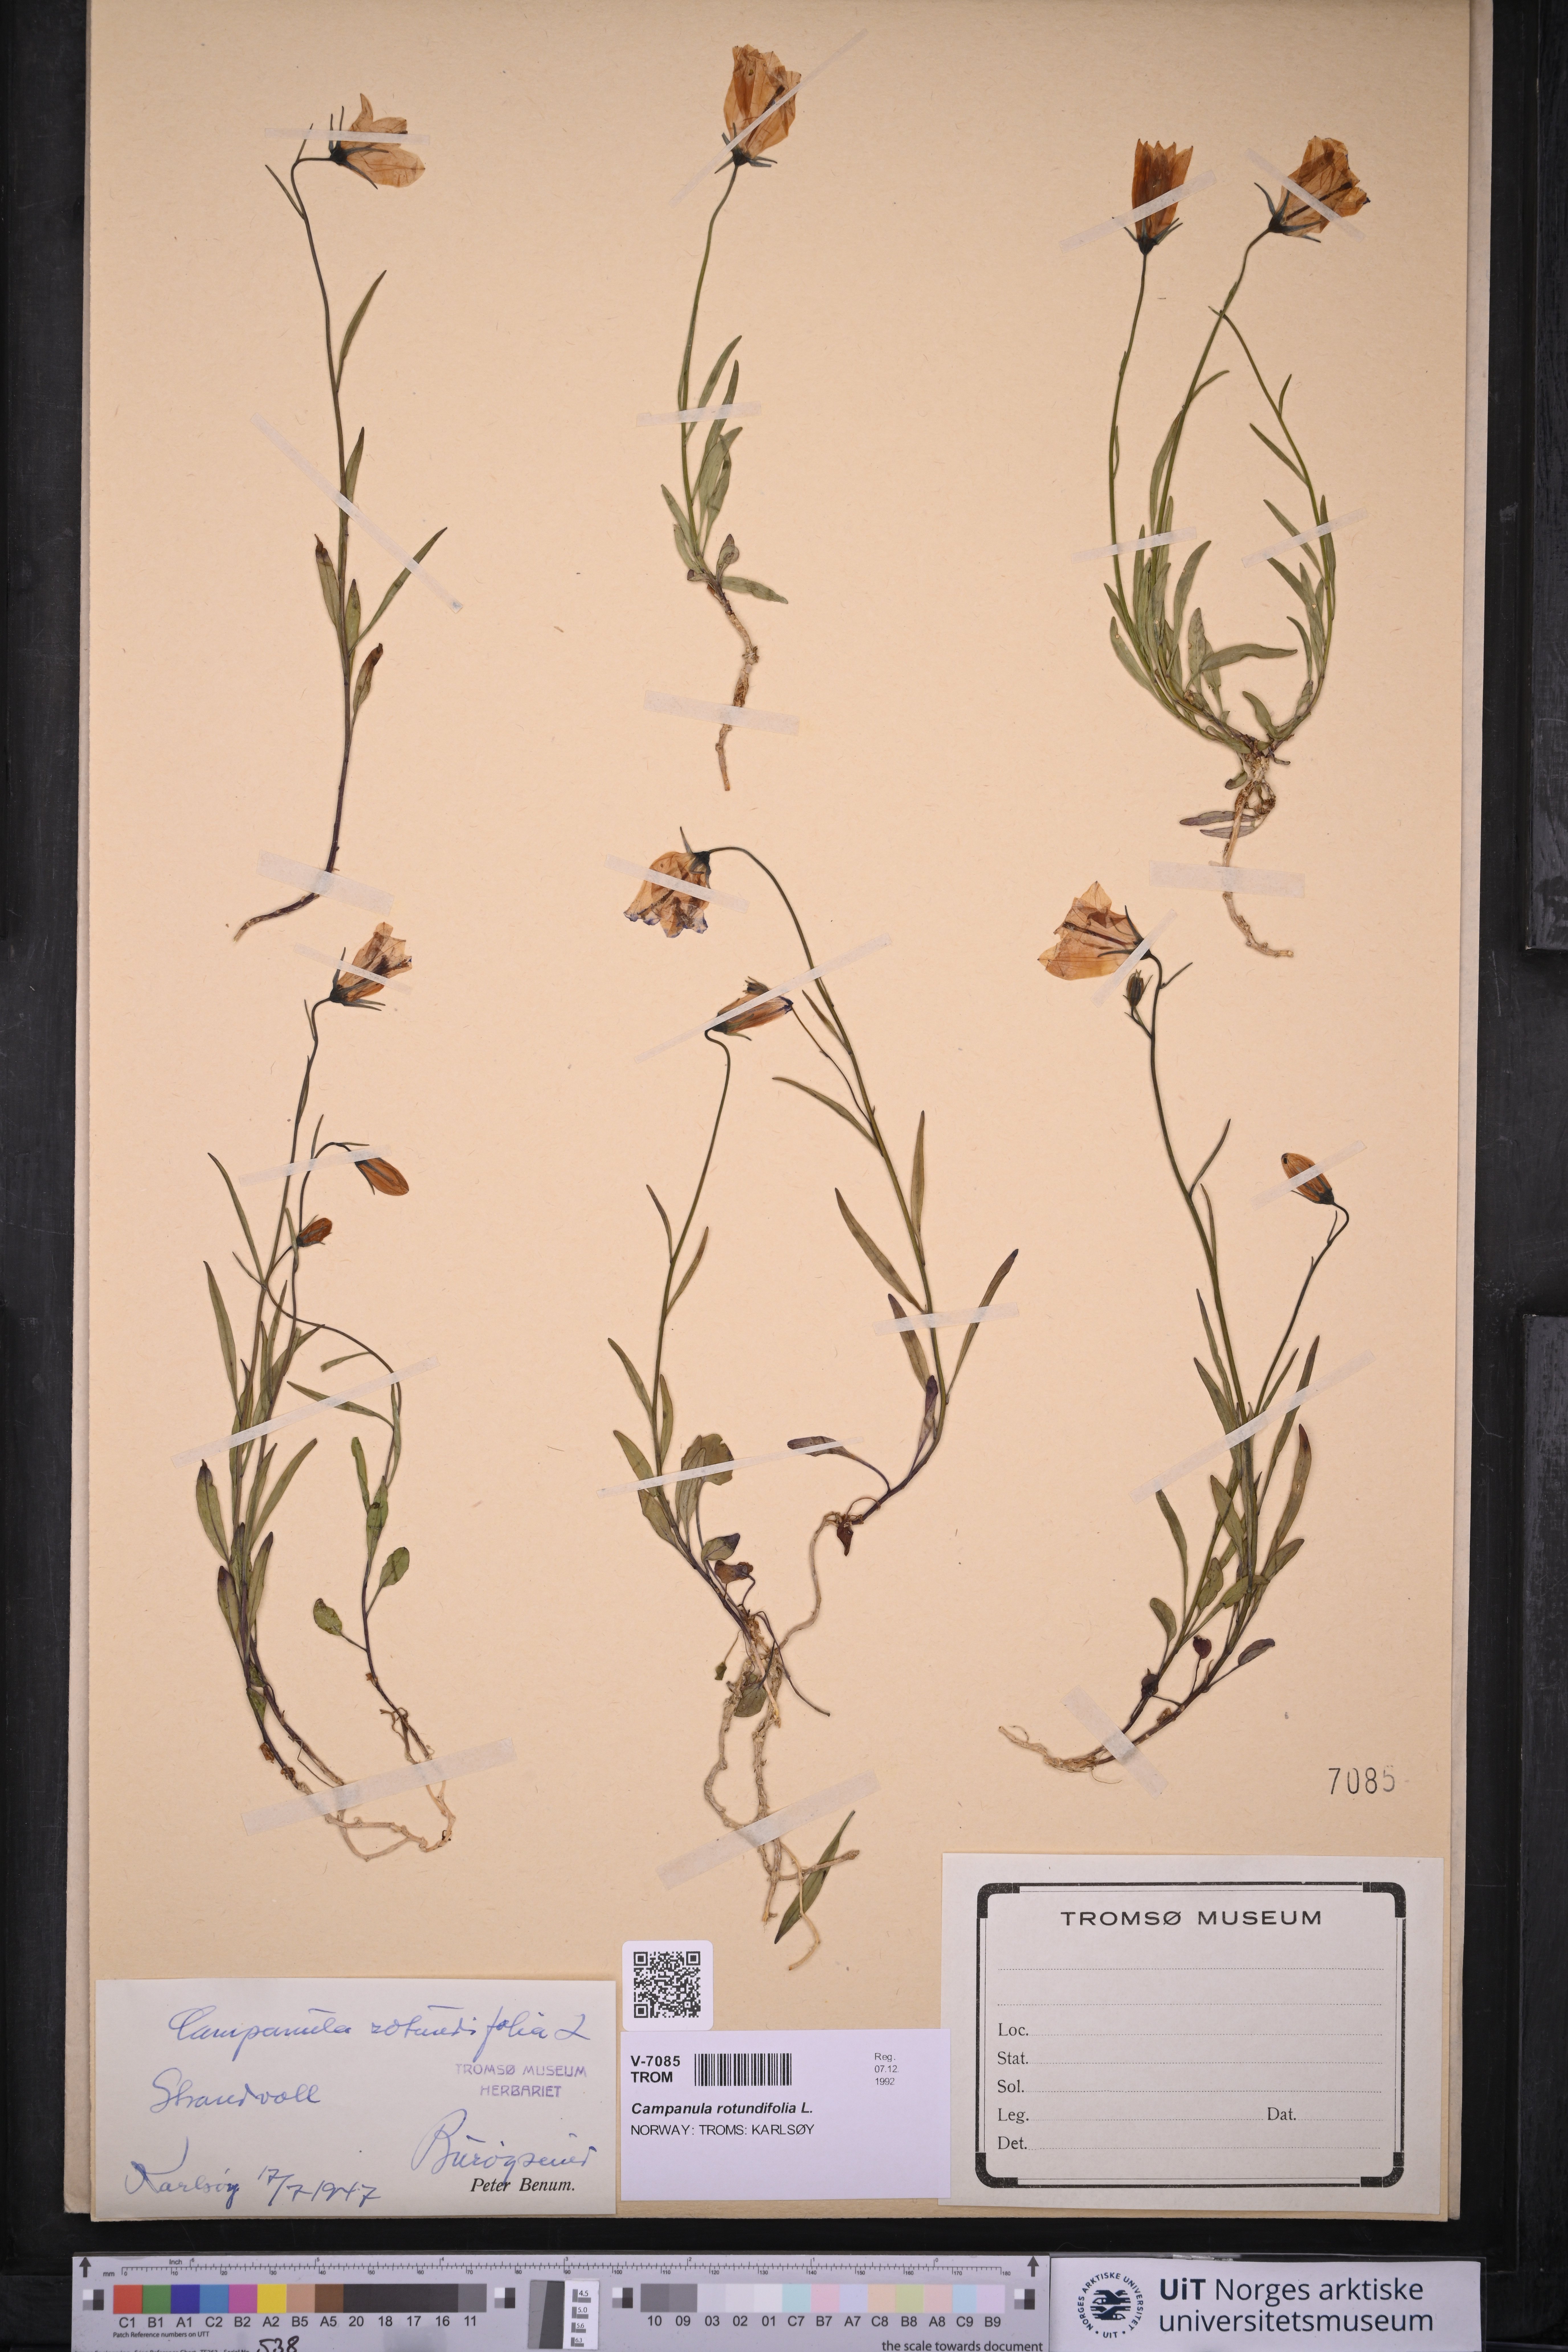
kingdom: Plantae
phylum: Tracheophyta
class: Magnoliopsida
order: Asterales
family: Campanulaceae
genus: Campanula
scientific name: Campanula rotundifolia
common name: Harebell
